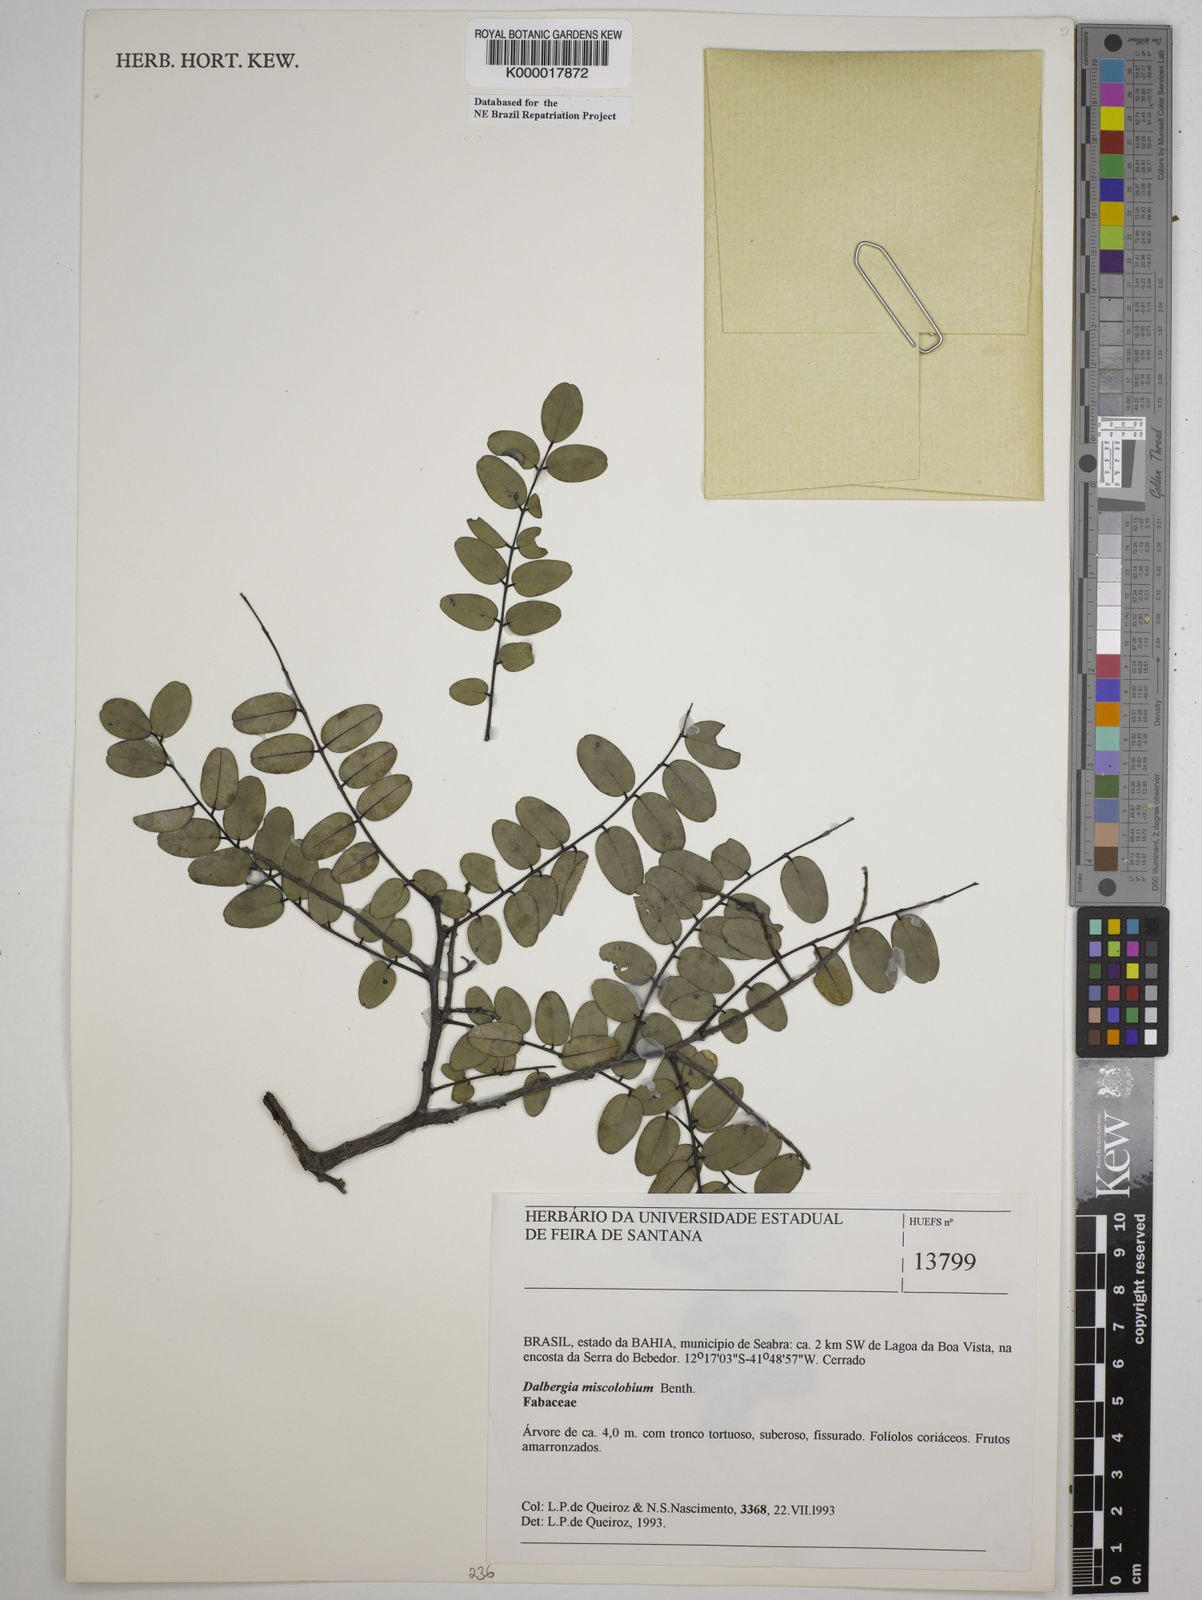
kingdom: Plantae
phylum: Tracheophyta
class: Magnoliopsida
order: Fabales
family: Fabaceae
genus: Dalbergia
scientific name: Dalbergia miscolobium
